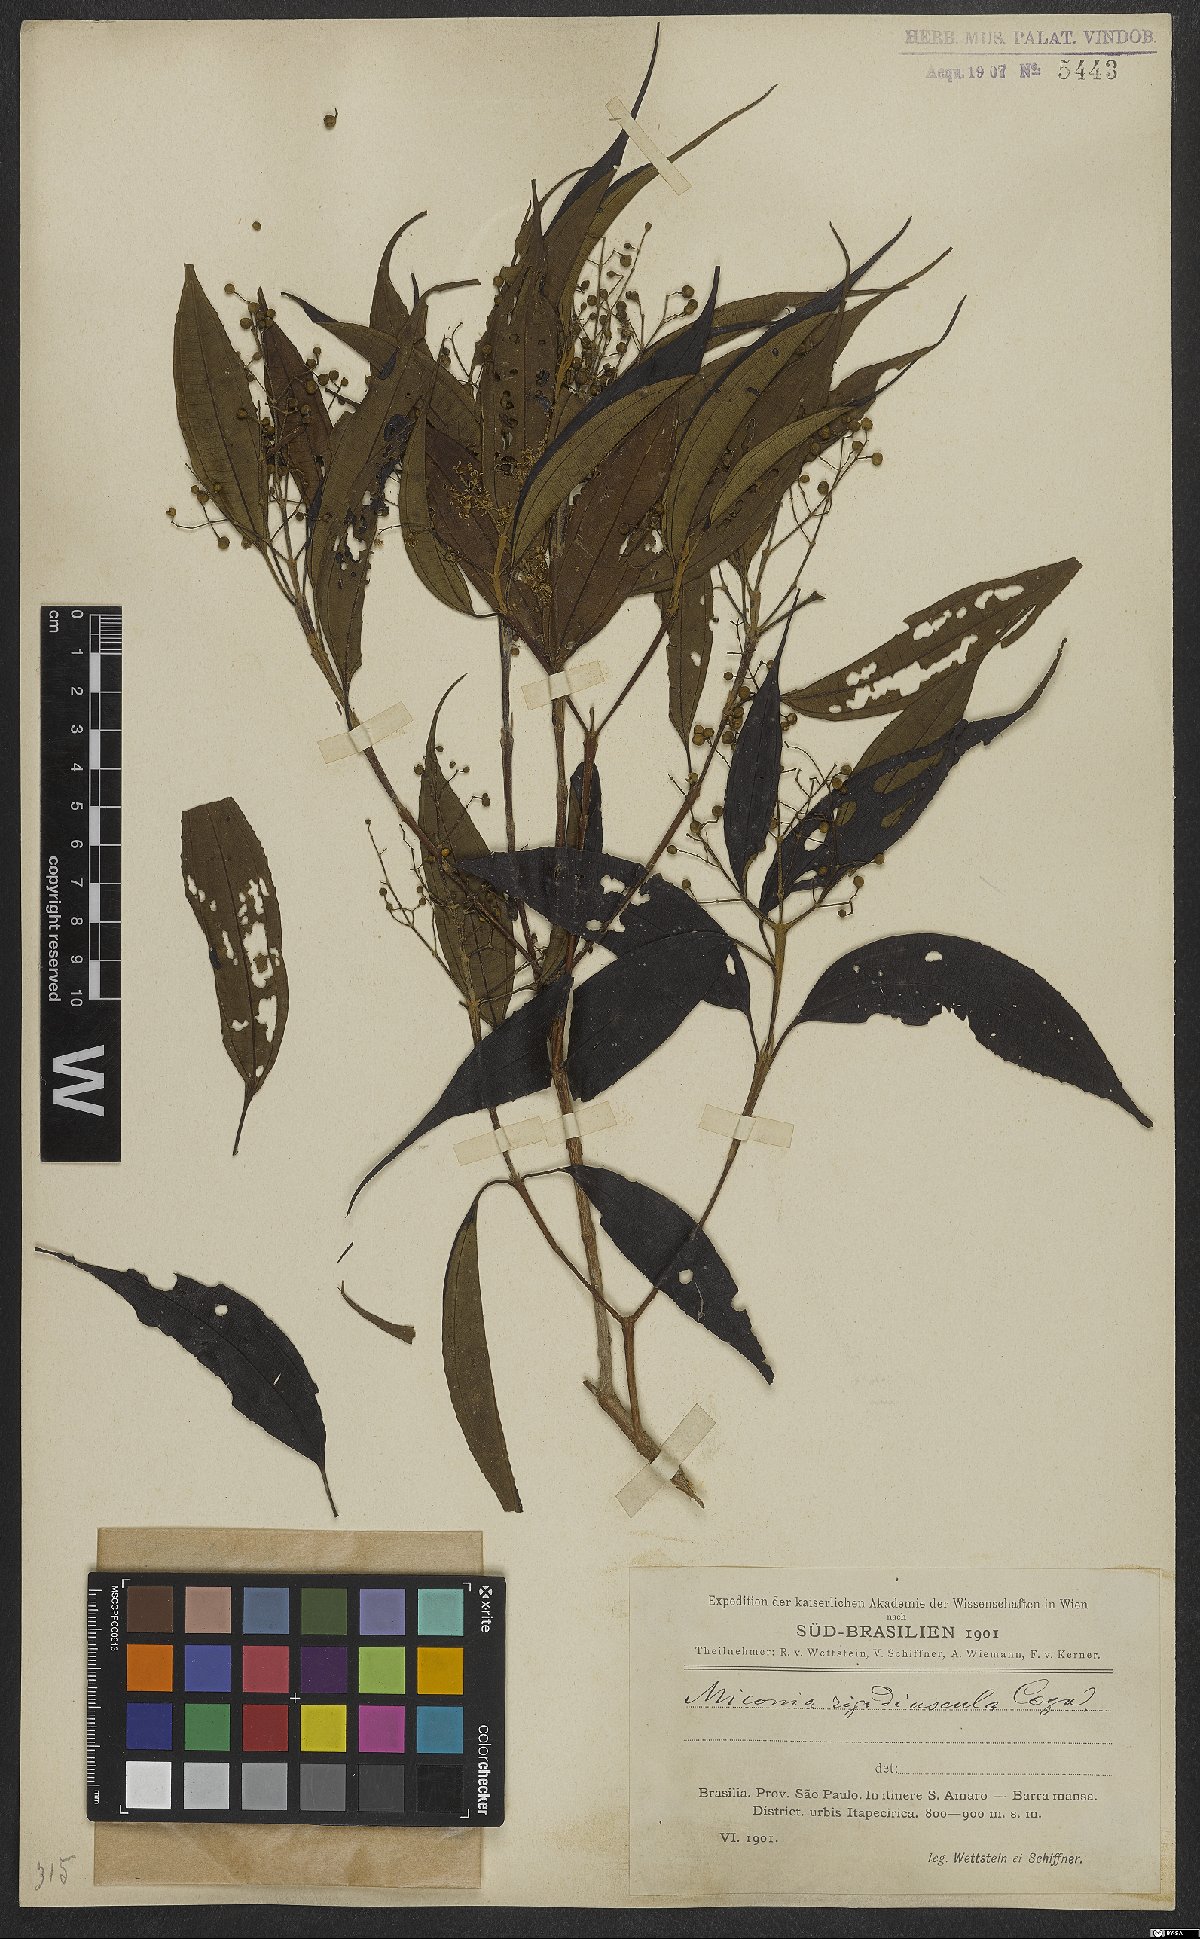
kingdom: Plantae
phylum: Tracheophyta
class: Magnoliopsida
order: Myrtales
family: Melastomataceae
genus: Miconia
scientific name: Miconia pusilliflora
